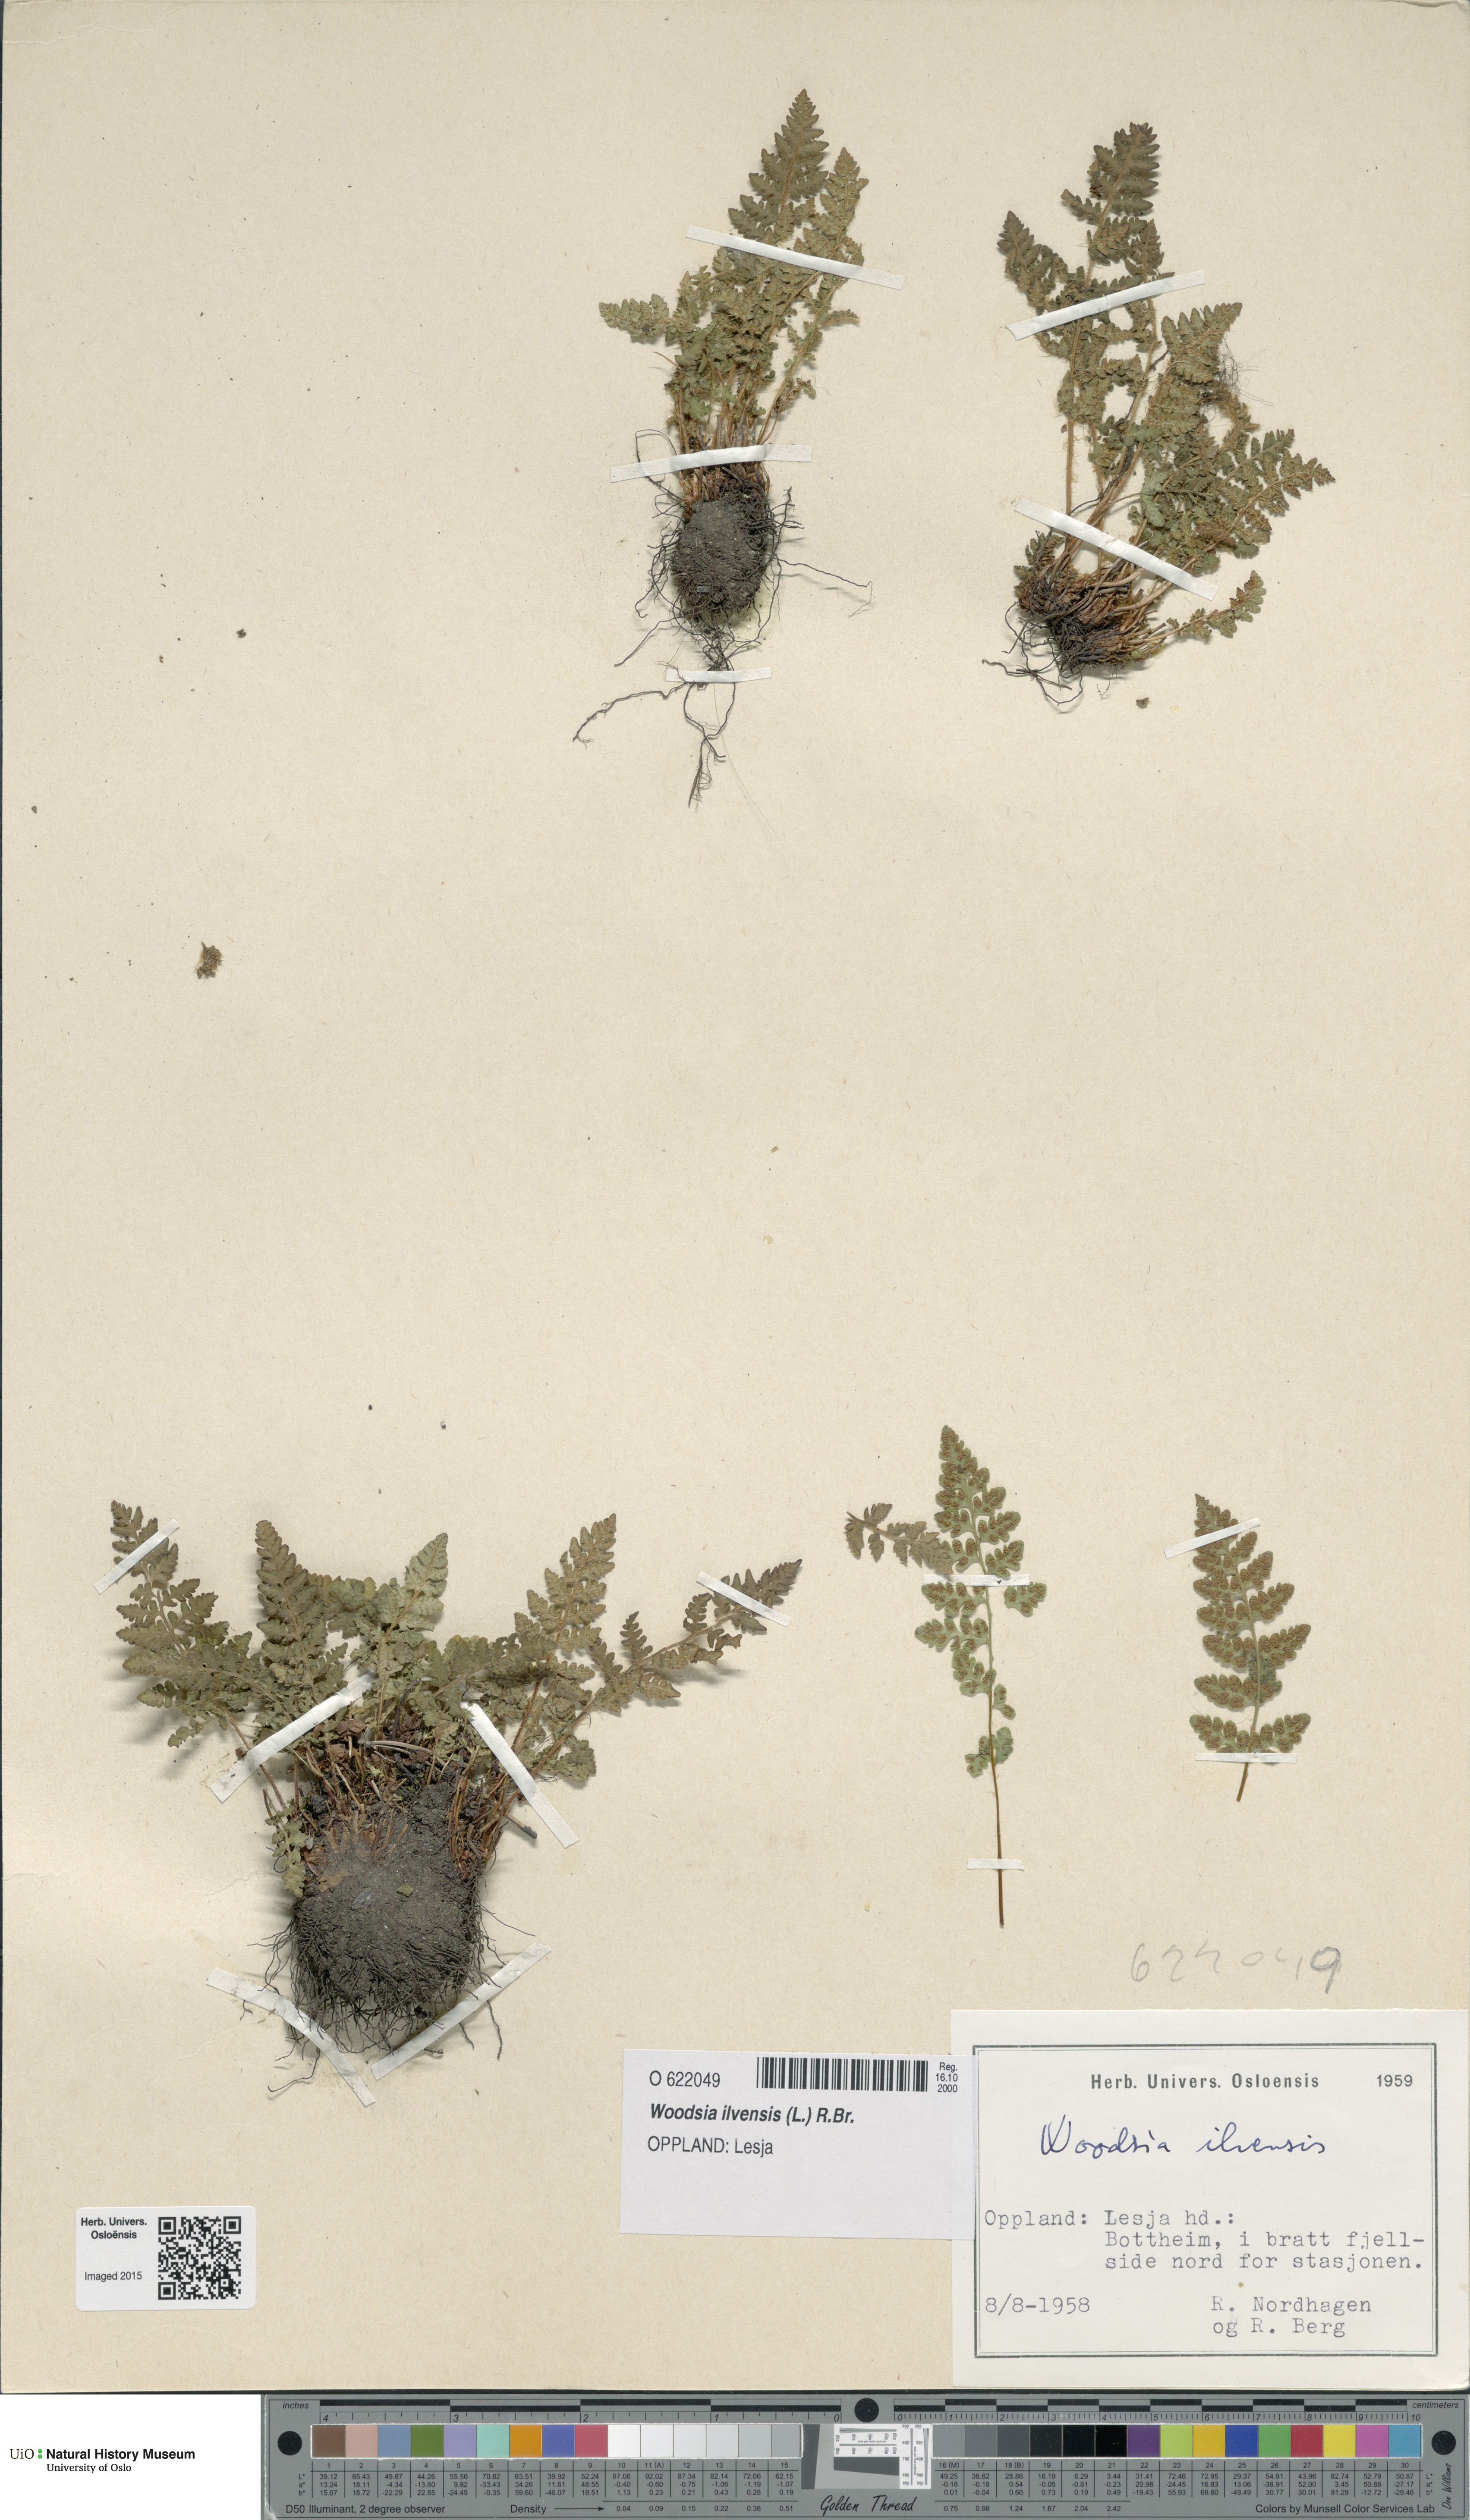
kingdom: Plantae
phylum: Tracheophyta
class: Polypodiopsida
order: Polypodiales
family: Woodsiaceae
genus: Woodsia
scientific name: Woodsia ilvensis
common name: Fragrant woodsia
